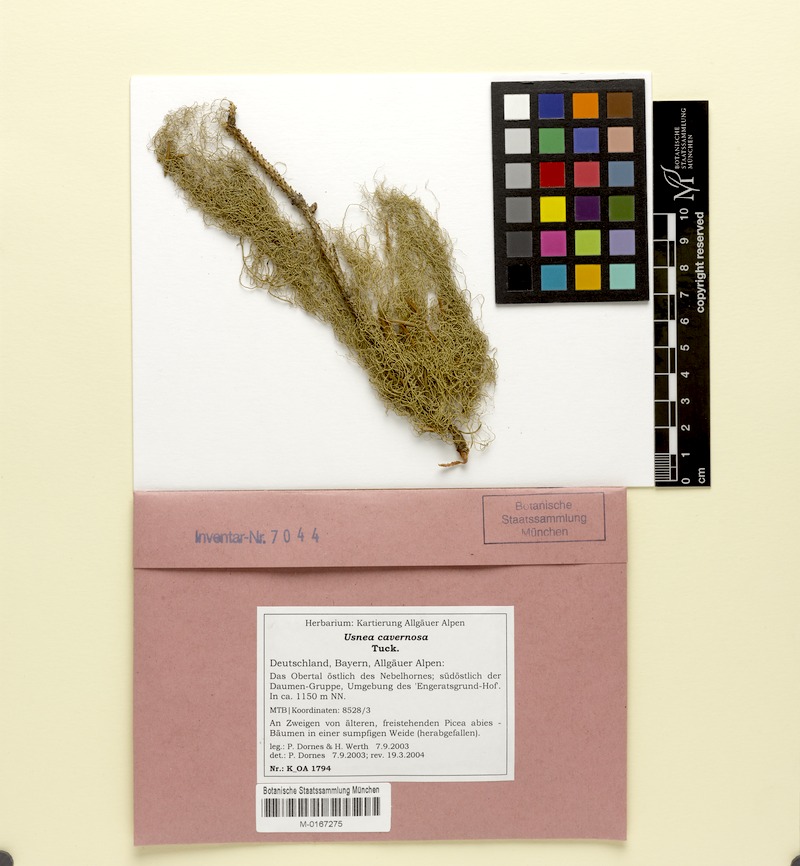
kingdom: Fungi
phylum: Ascomycota
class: Lecanoromycetes
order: Lecanorales
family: Parmeliaceae
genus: Usnea
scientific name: Usnea cavernosa
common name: Pitted beard lichen
